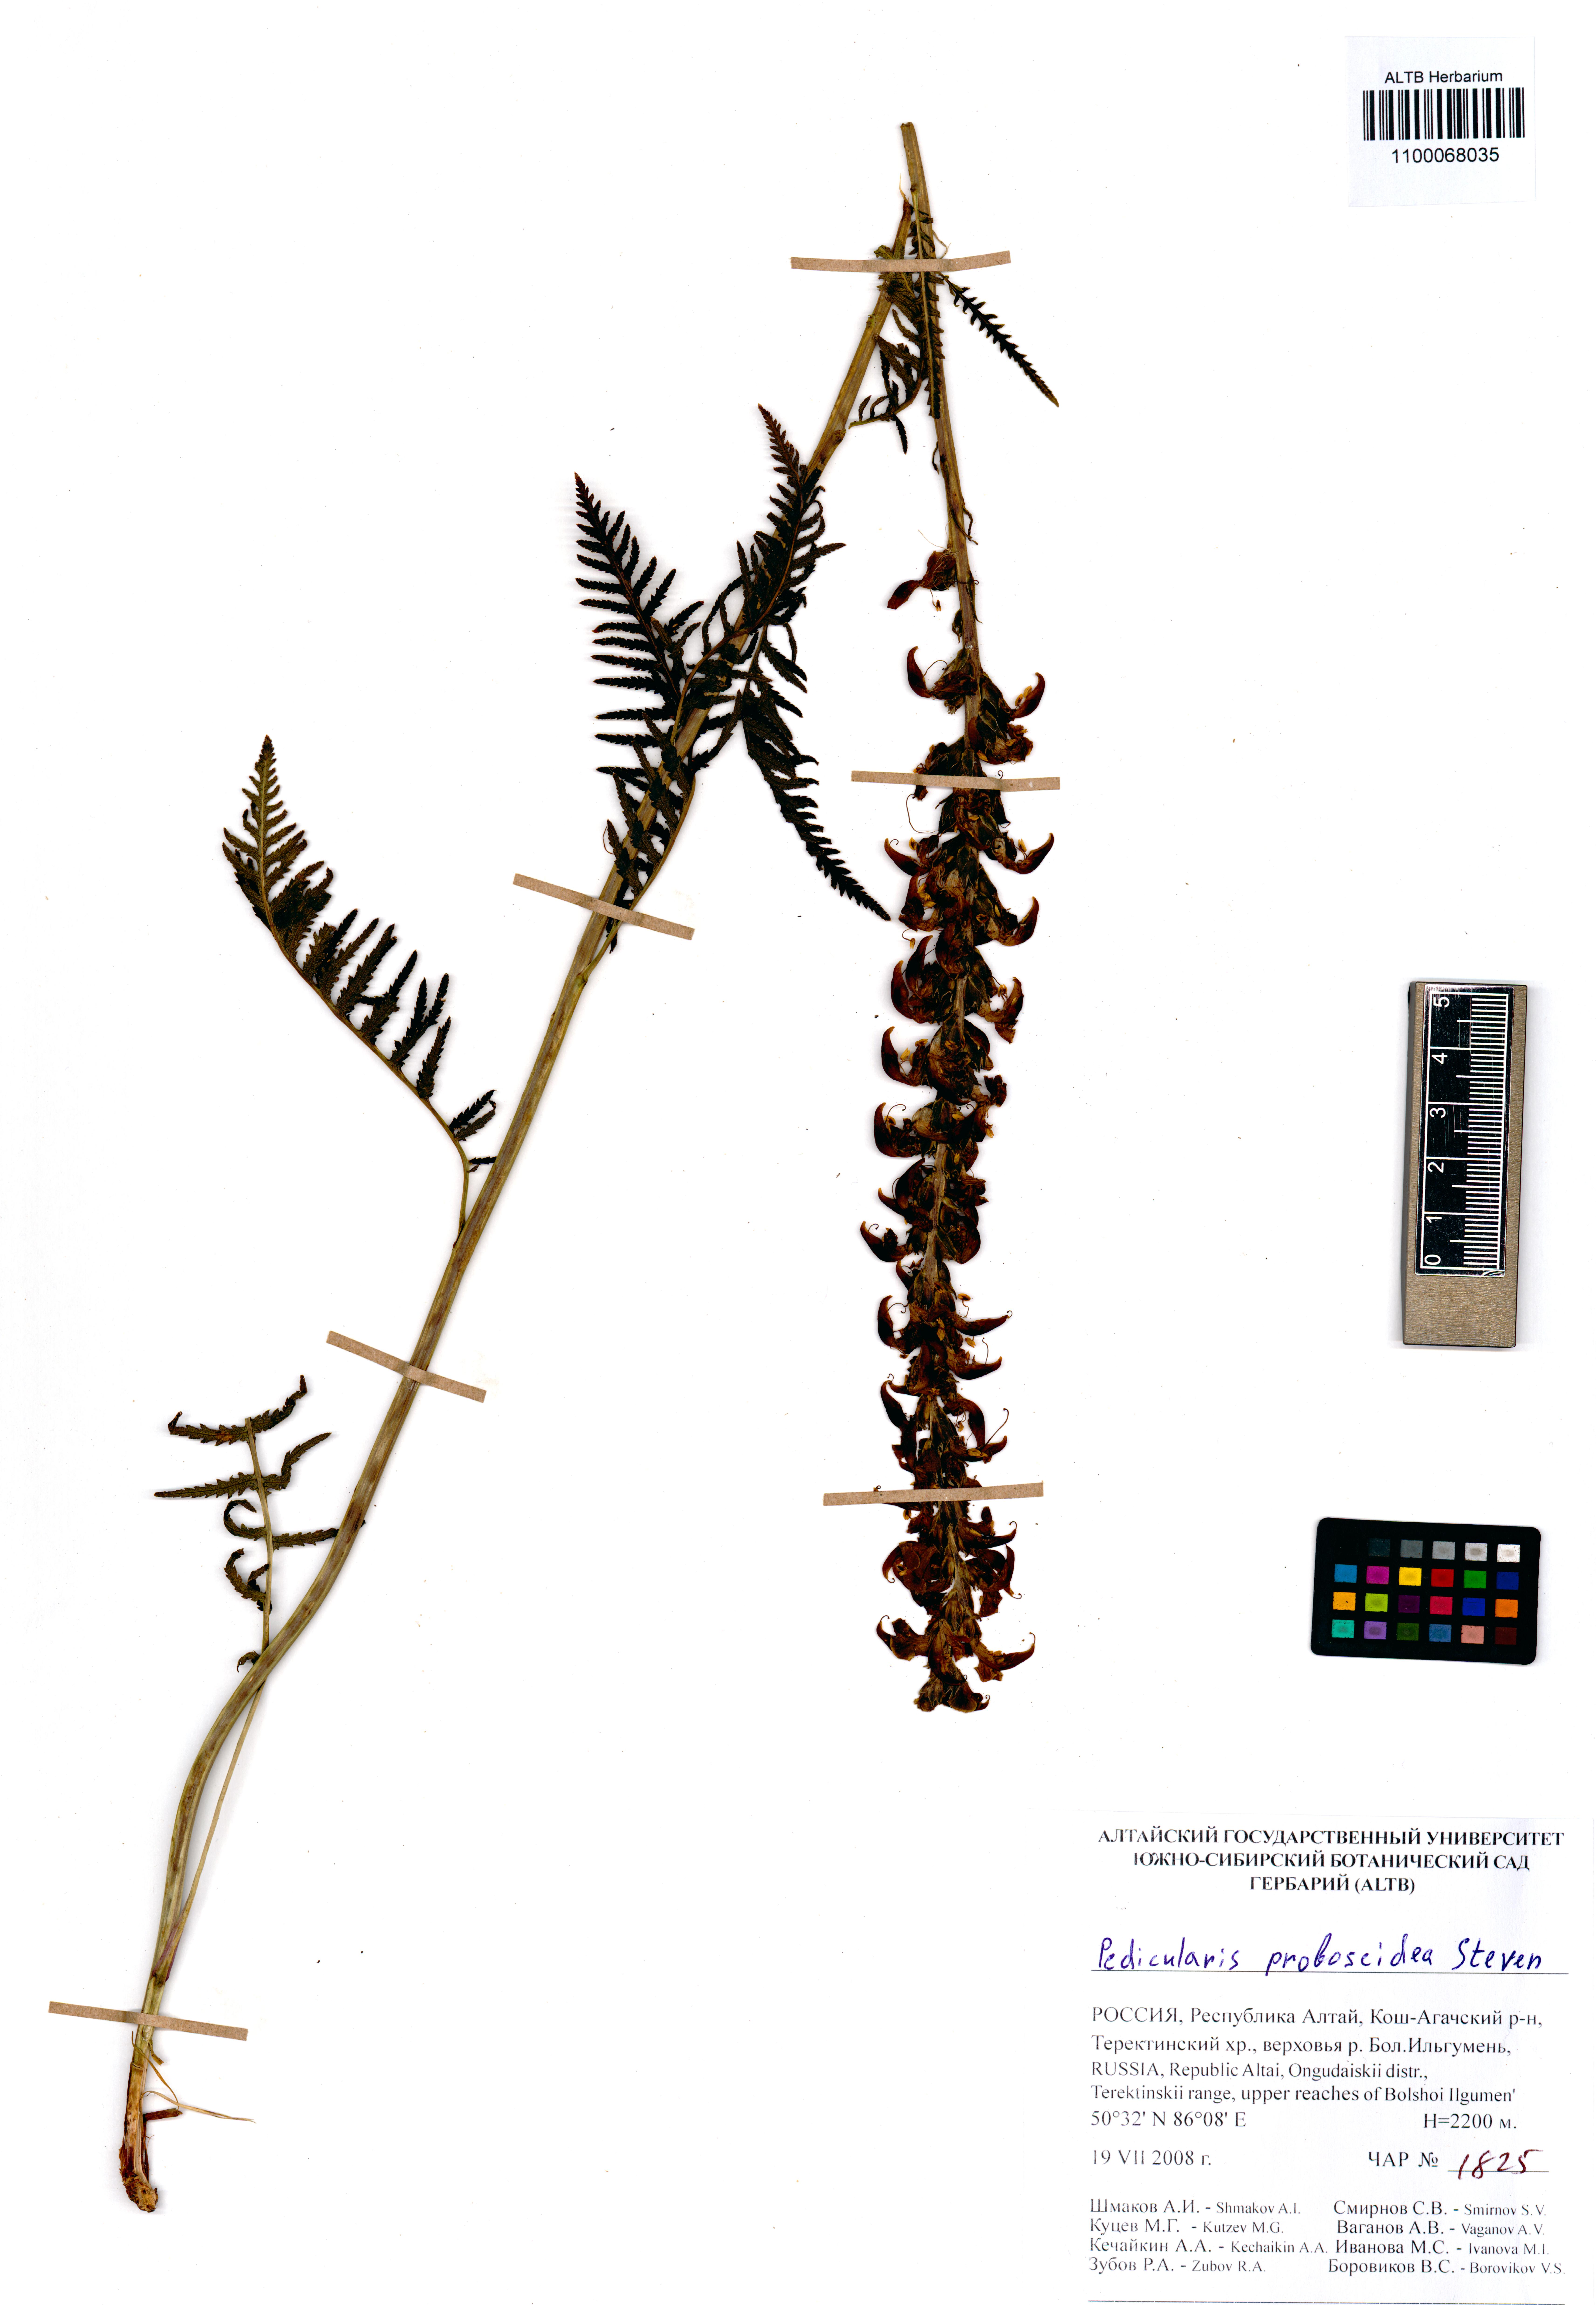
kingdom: Plantae
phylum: Tracheophyta
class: Magnoliopsida
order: Lamiales
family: Orobanchaceae
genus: Pedicularis
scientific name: Pedicularis cenisia
